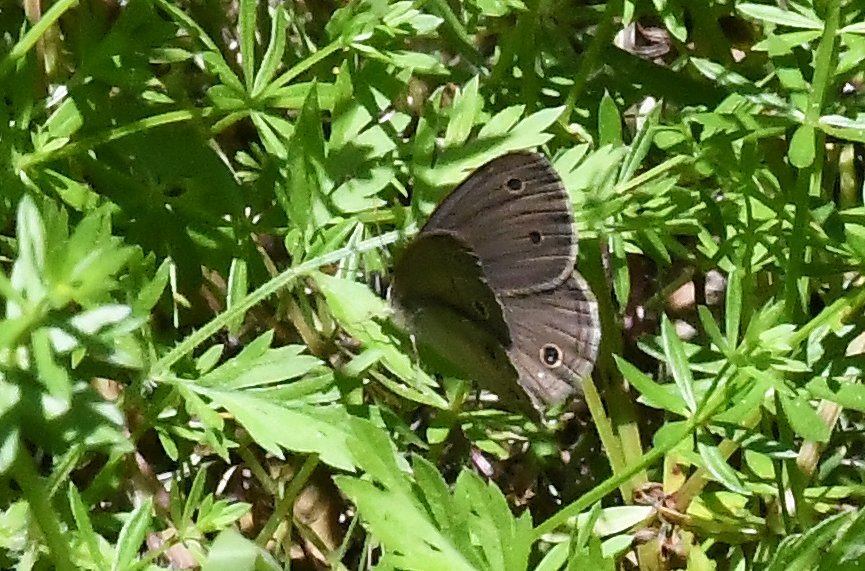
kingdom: Animalia
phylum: Arthropoda
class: Insecta
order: Lepidoptera
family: Nymphalidae
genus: Euptychia
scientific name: Euptychia cymela
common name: Little Wood Satyr
